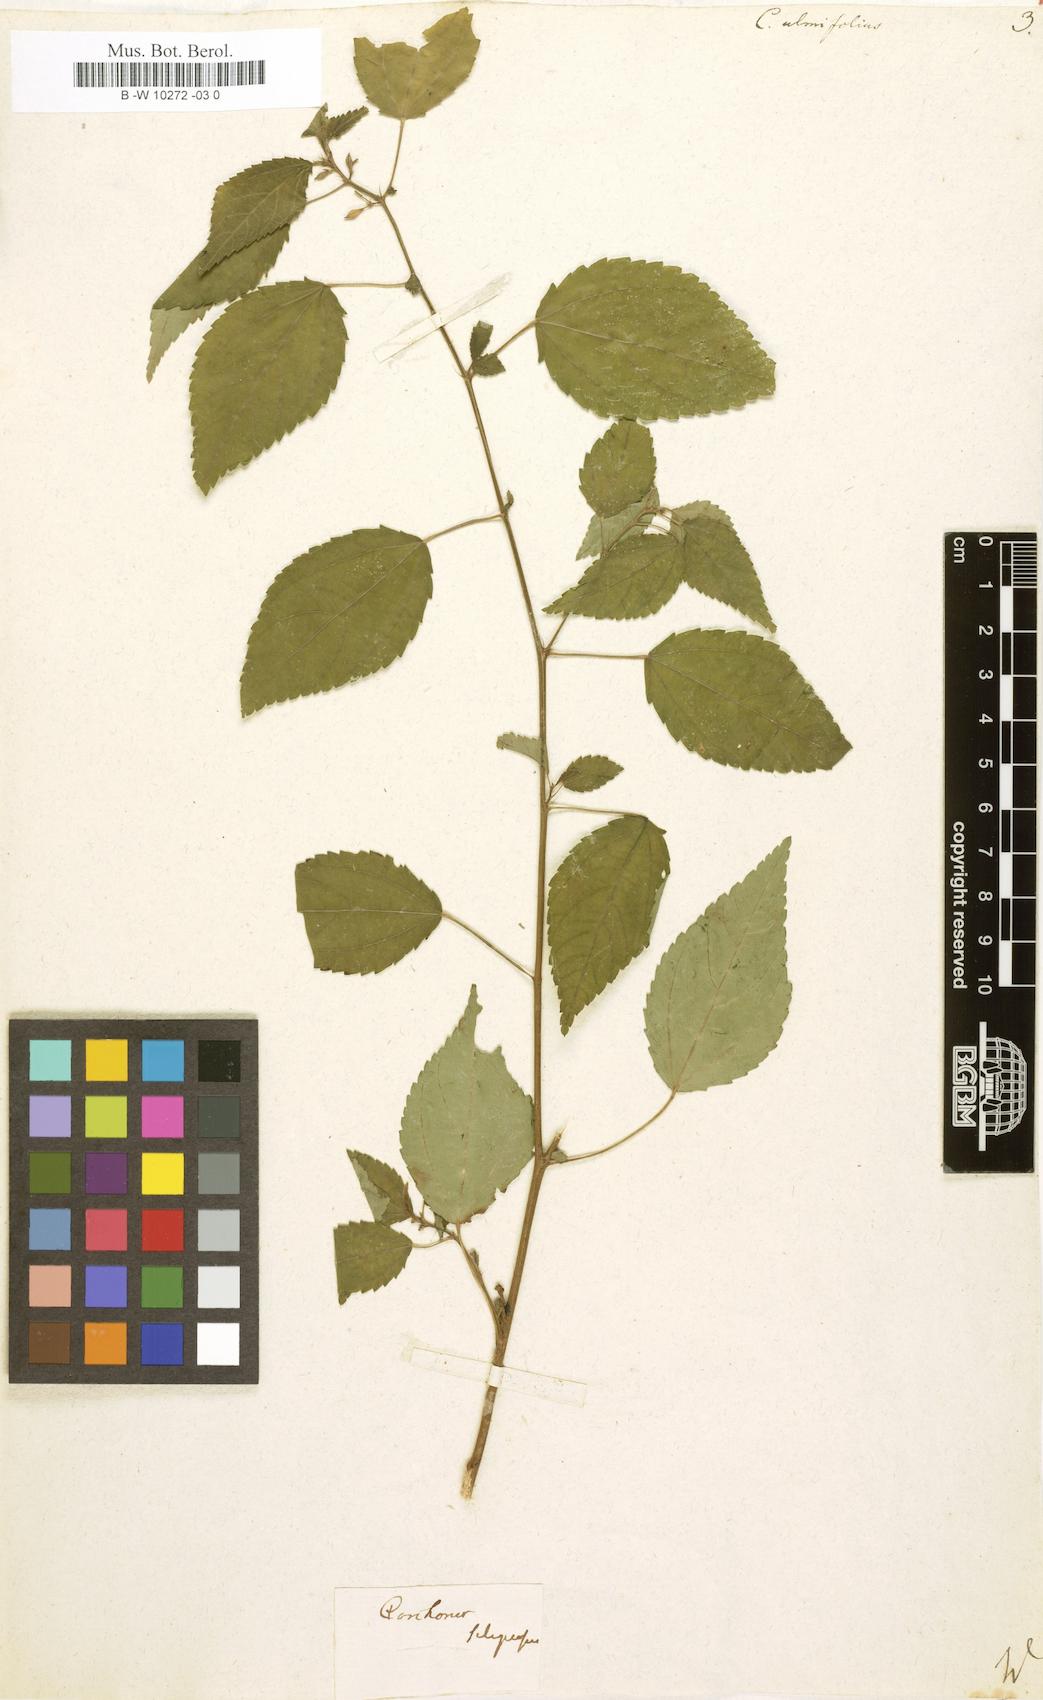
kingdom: Plantae
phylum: Tracheophyta
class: Magnoliopsida
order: Malvales
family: Malvaceae
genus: Corchorus
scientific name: Corchorus
